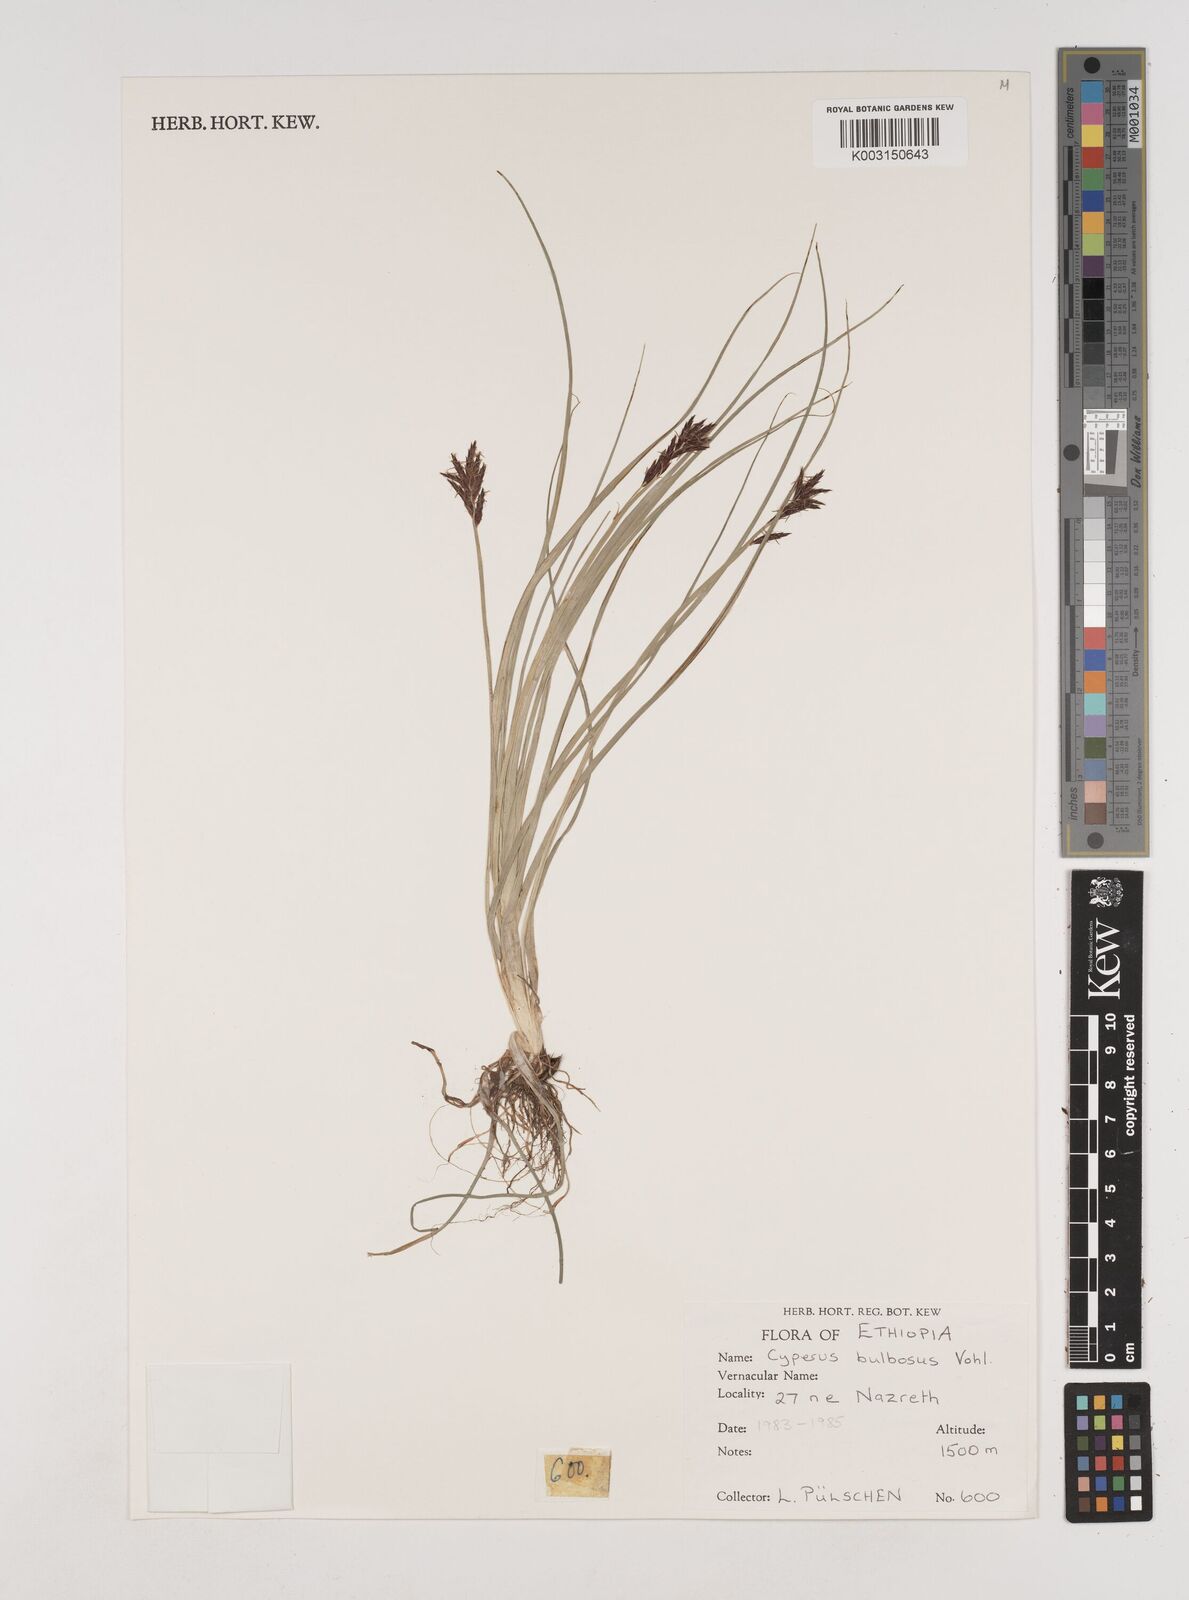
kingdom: Plantae
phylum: Tracheophyta
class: Liliopsida
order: Poales
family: Cyperaceae
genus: Cyperus
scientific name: Cyperus bulbosus
